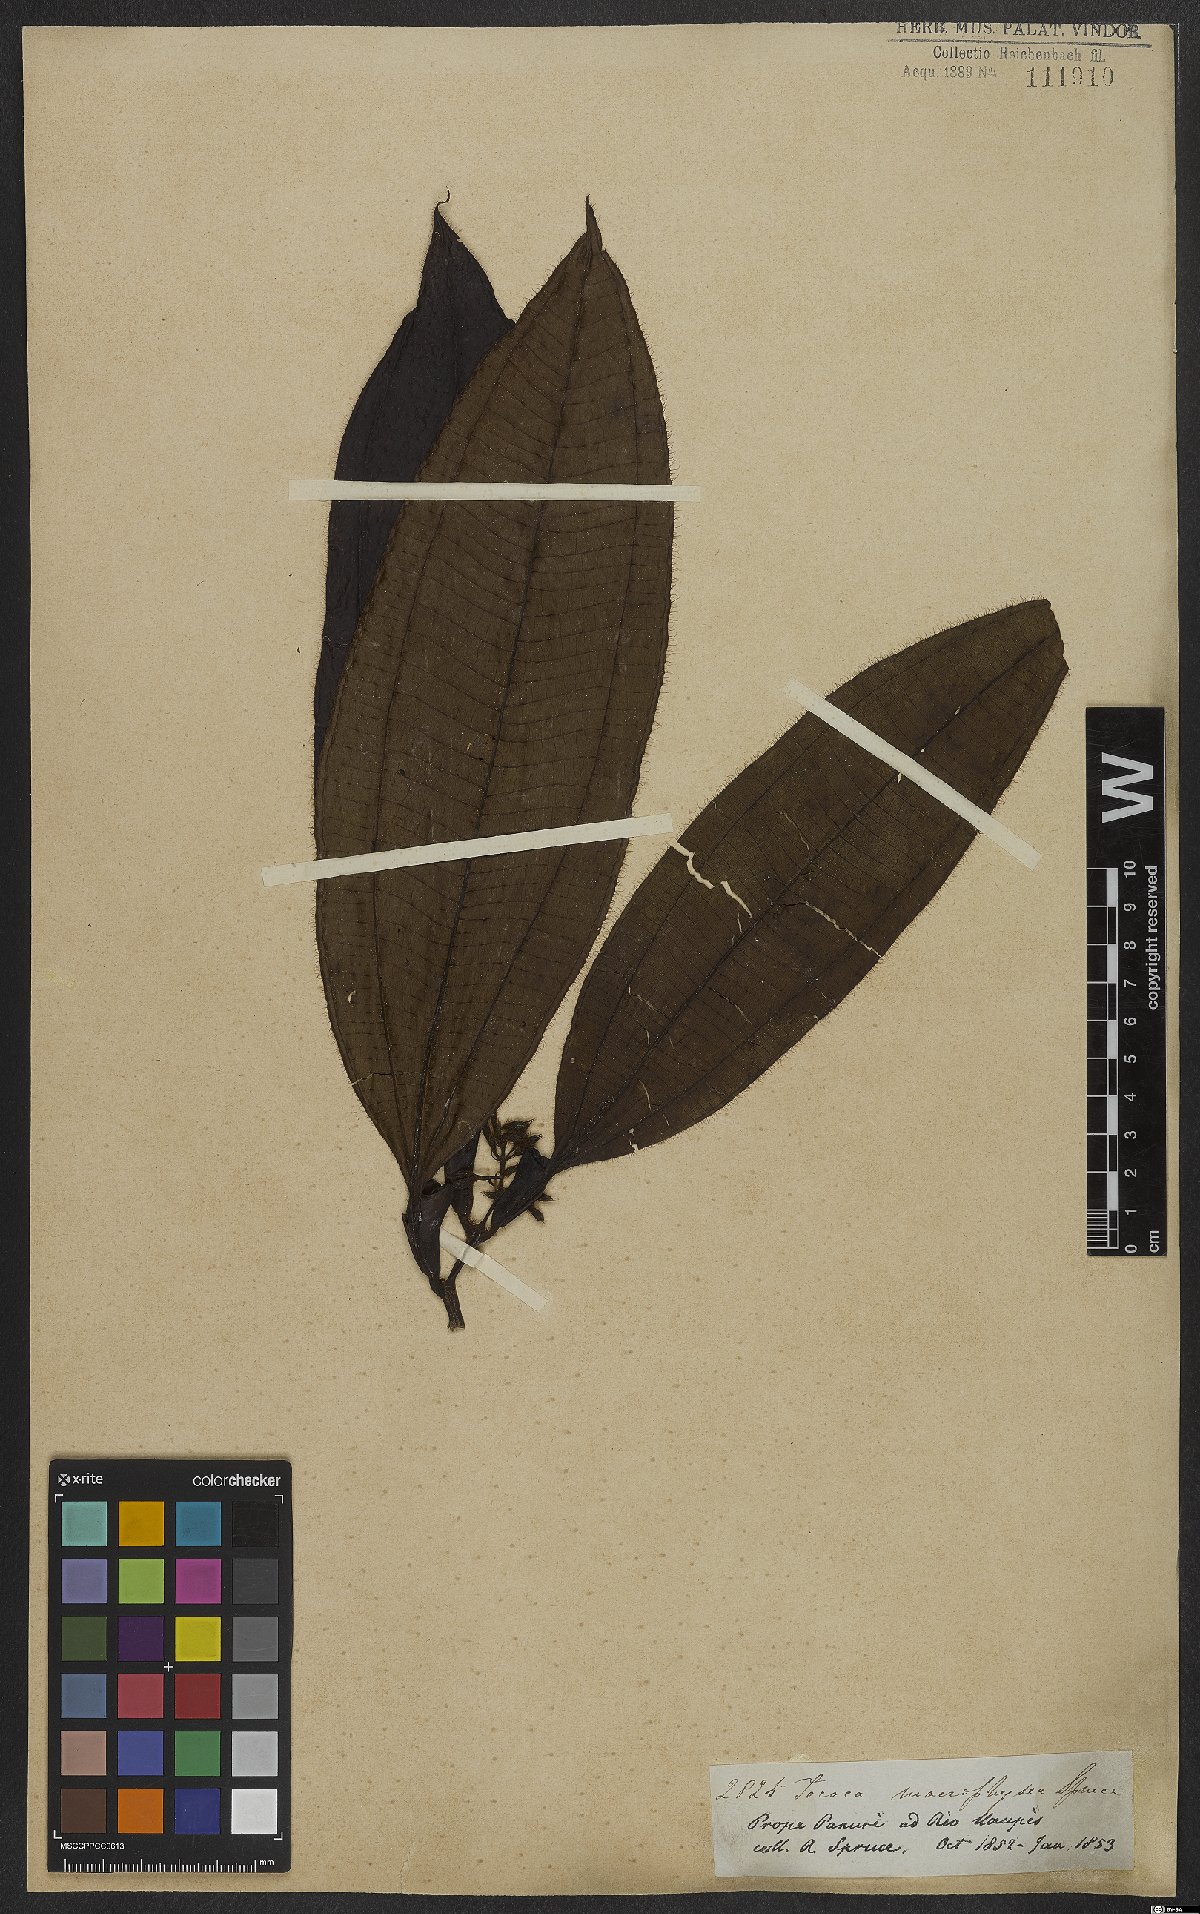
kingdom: Plantae
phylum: Tracheophyta
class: Magnoliopsida
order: Myrtales
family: Melastomataceae
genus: Miconia
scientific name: Miconia macrophysca
